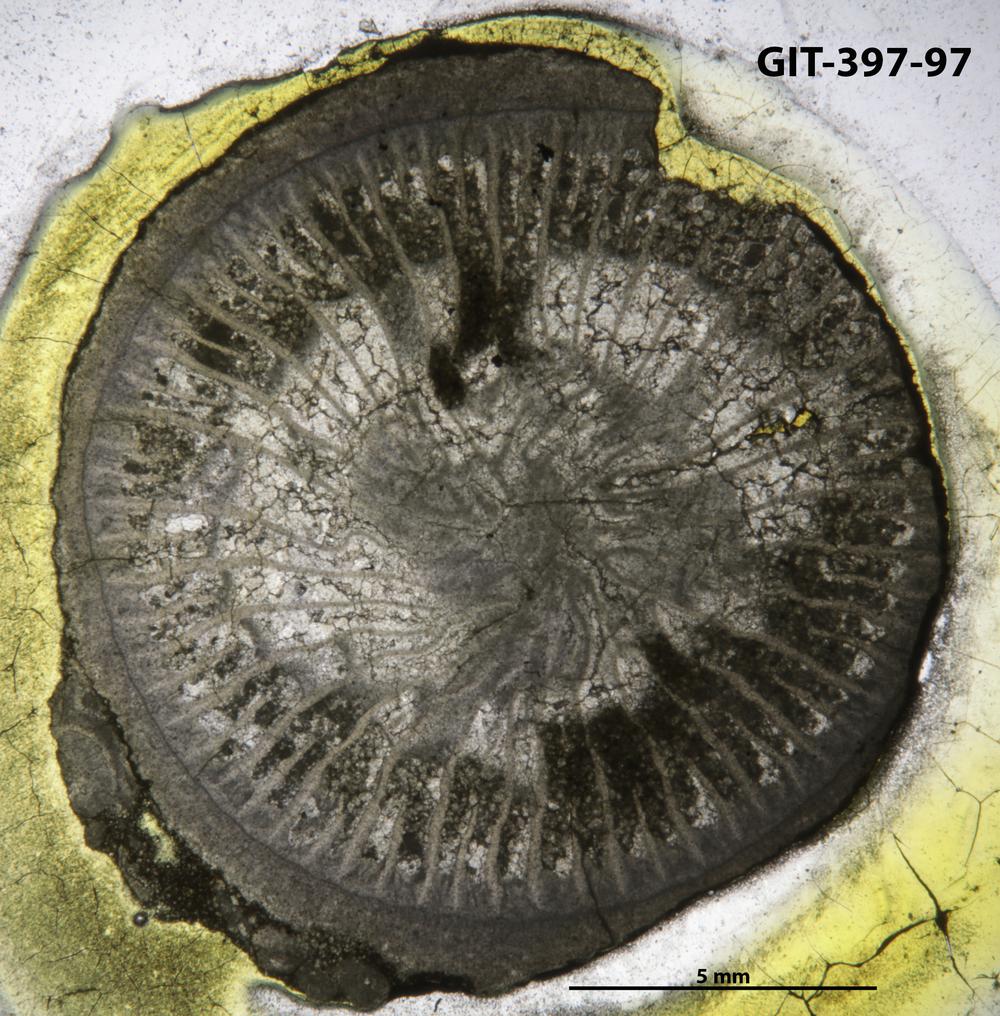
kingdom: Animalia
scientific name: Animalia
